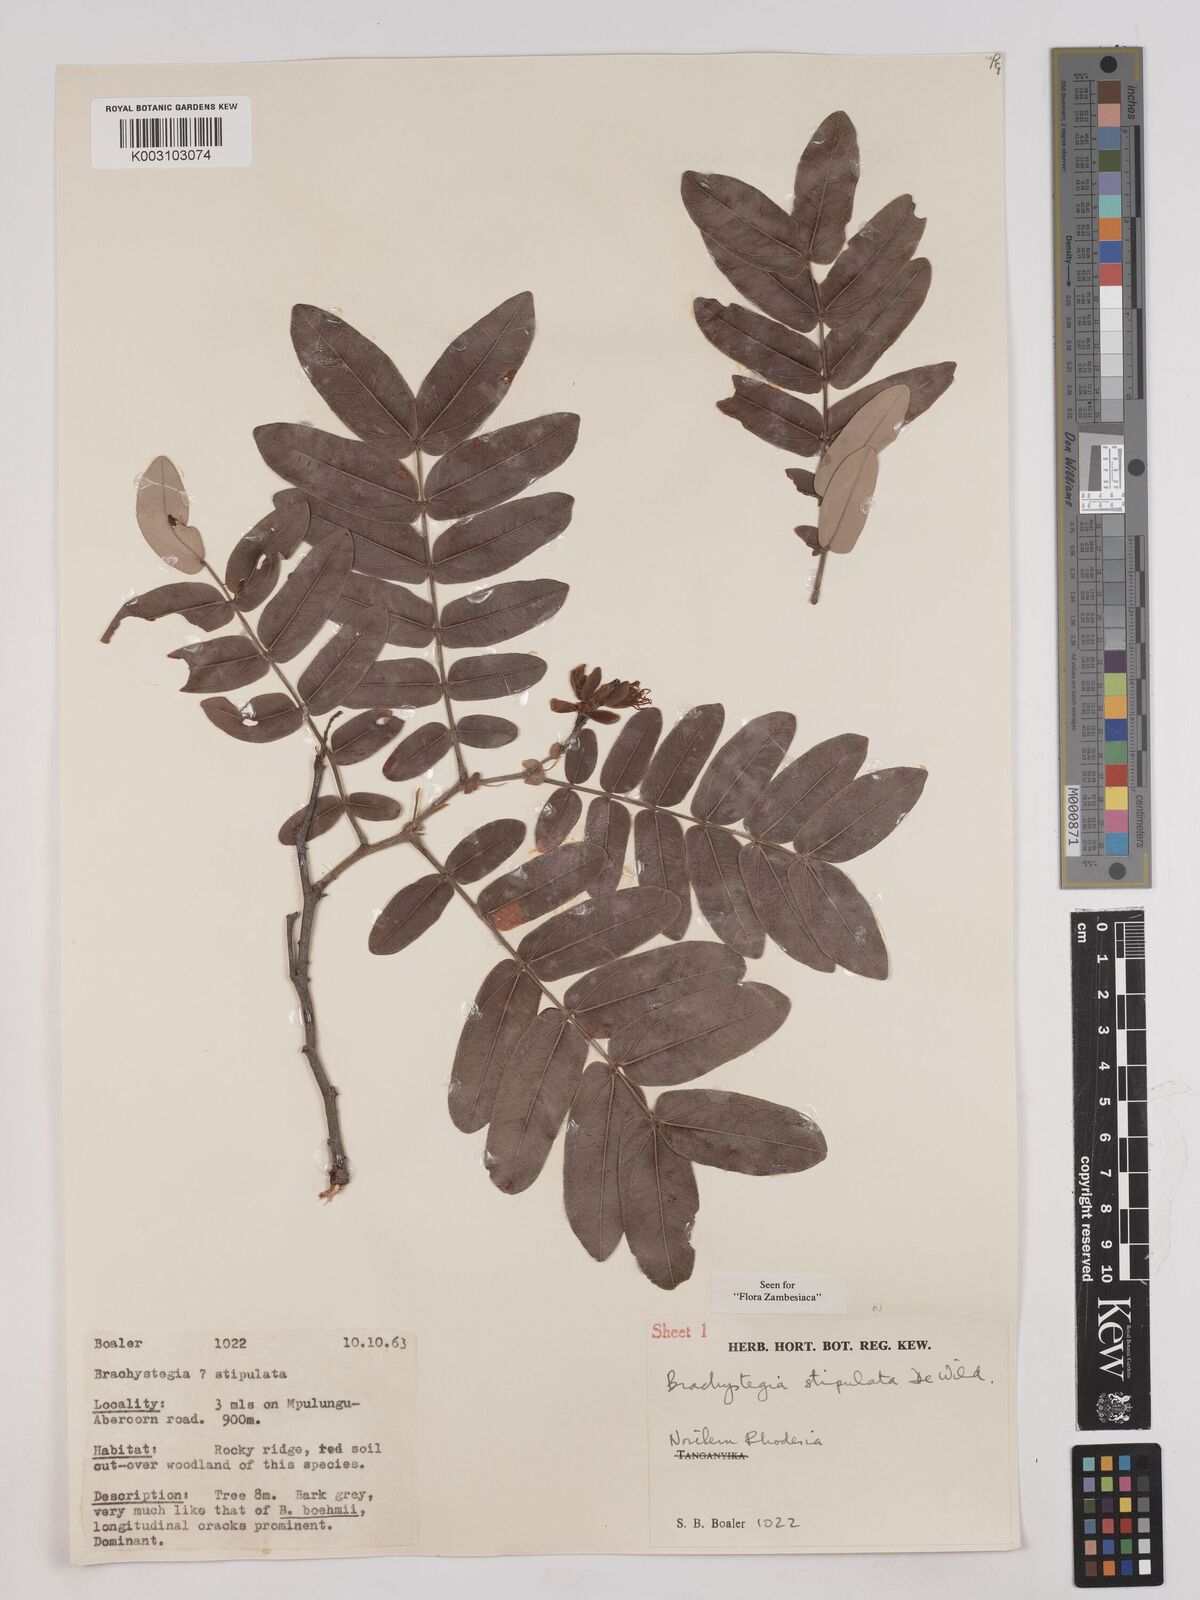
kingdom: Plantae
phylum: Tracheophyta
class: Magnoliopsida
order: Fabales
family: Fabaceae
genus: Brachystegia
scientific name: Brachystegia stipulata
